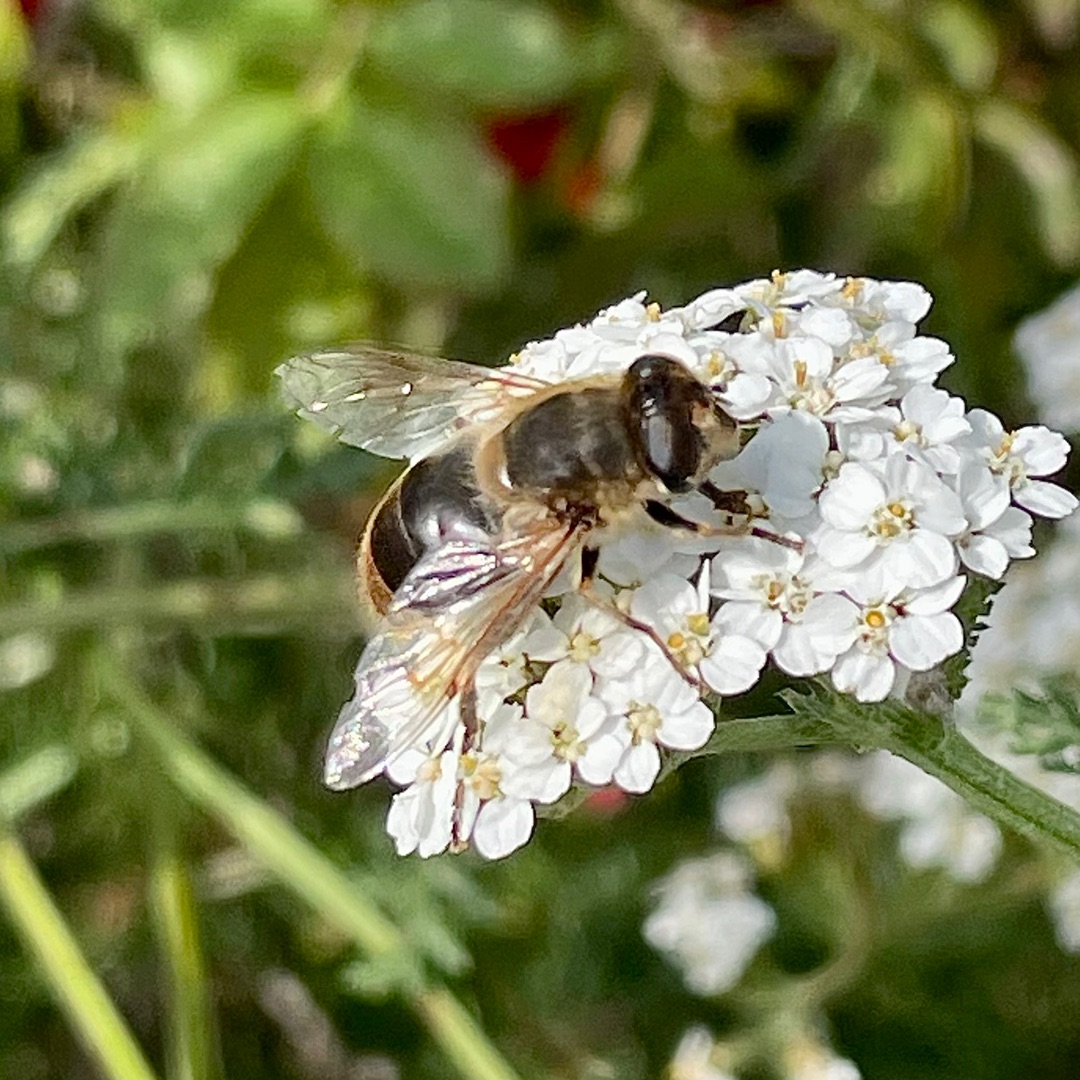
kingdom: Animalia
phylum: Arthropoda
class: Insecta
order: Diptera
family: Syrphidae
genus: Eristalis
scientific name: Eristalis tenax
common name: Droneflue
